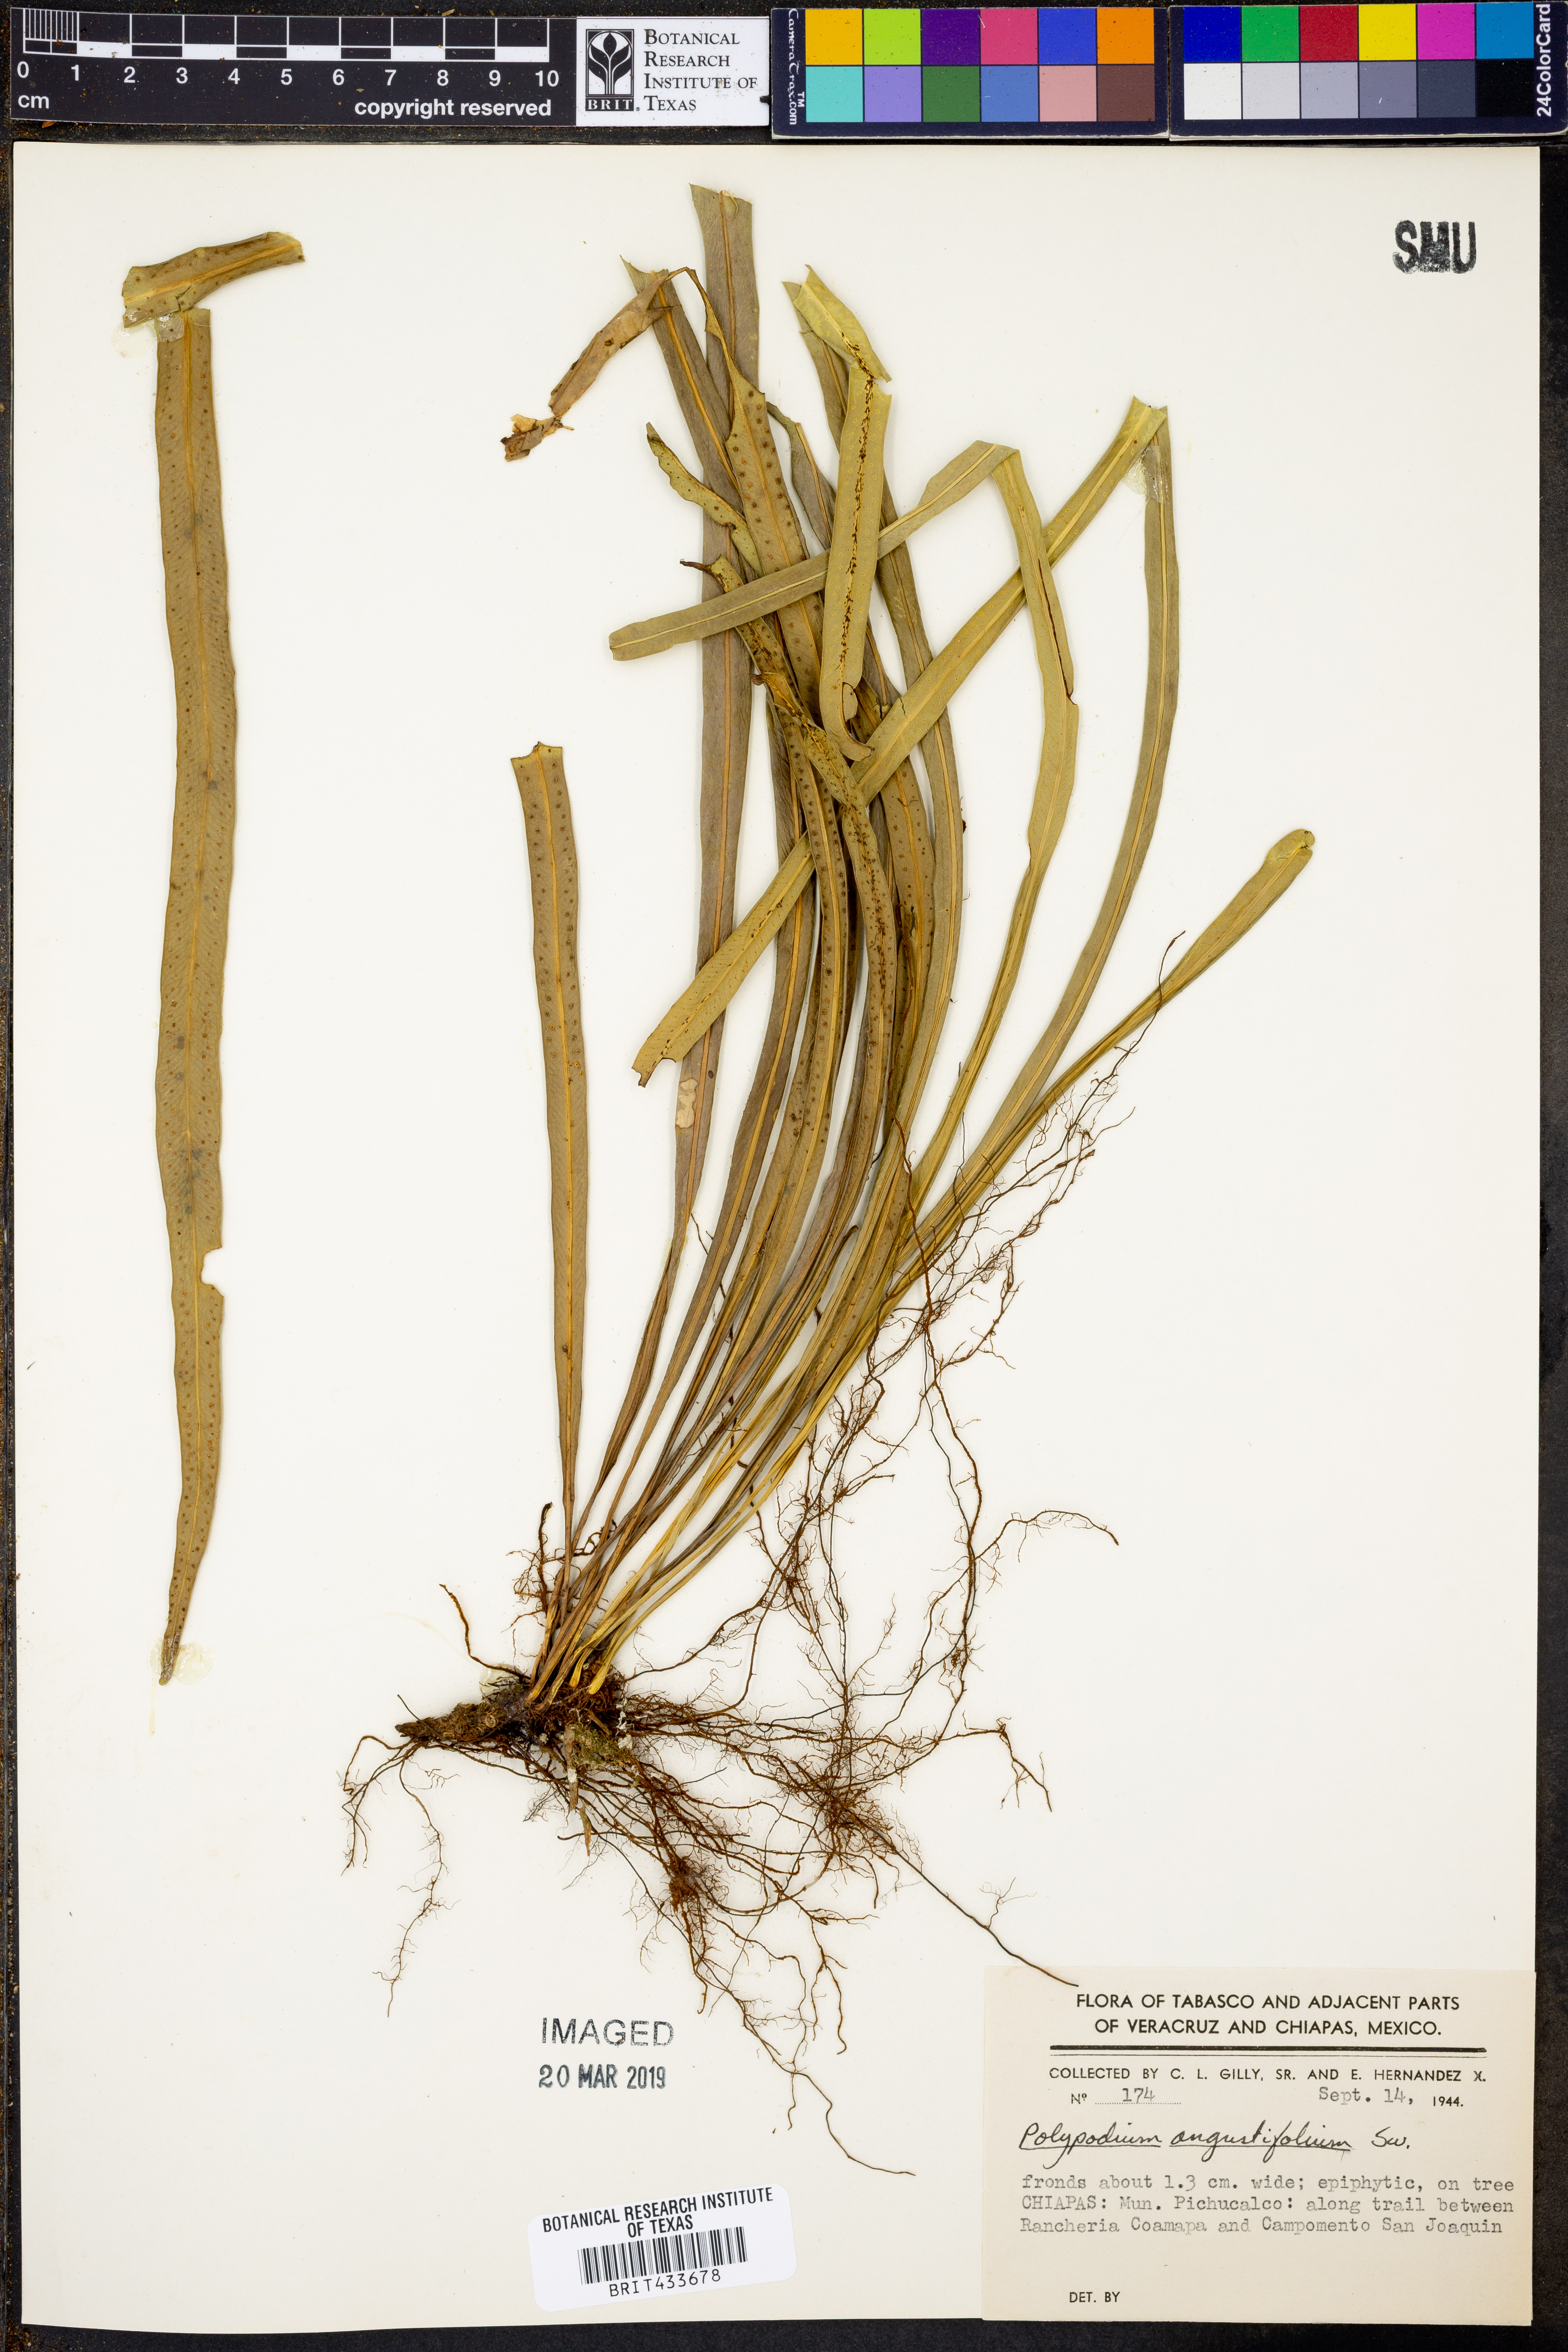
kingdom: Plantae
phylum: Tracheophyta
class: Polypodiopsida
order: Polypodiales
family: Polypodiaceae
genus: Campyloneurum
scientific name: Campyloneurum angustifolium
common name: Narrow-leaf strap fern
